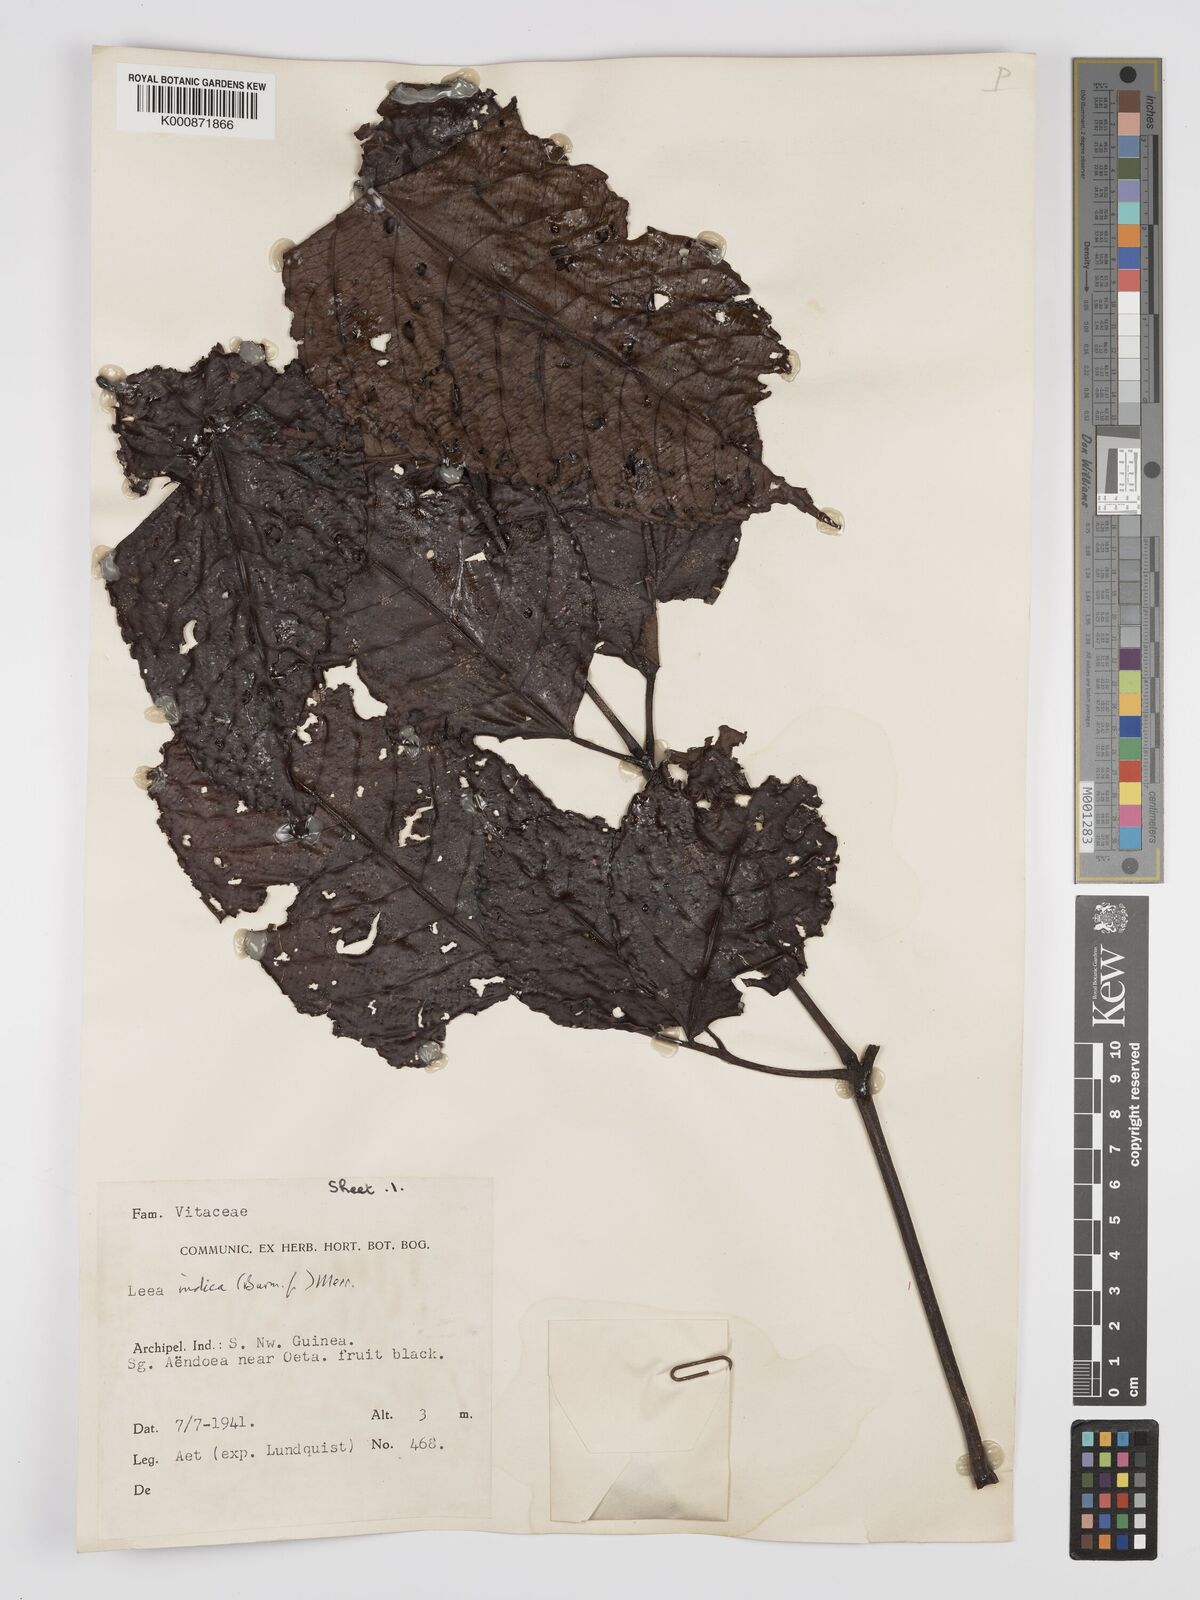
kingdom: Plantae
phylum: Tracheophyta
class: Magnoliopsida
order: Vitales
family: Vitaceae
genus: Leea
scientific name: Leea indica
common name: Bandicoot-berry
